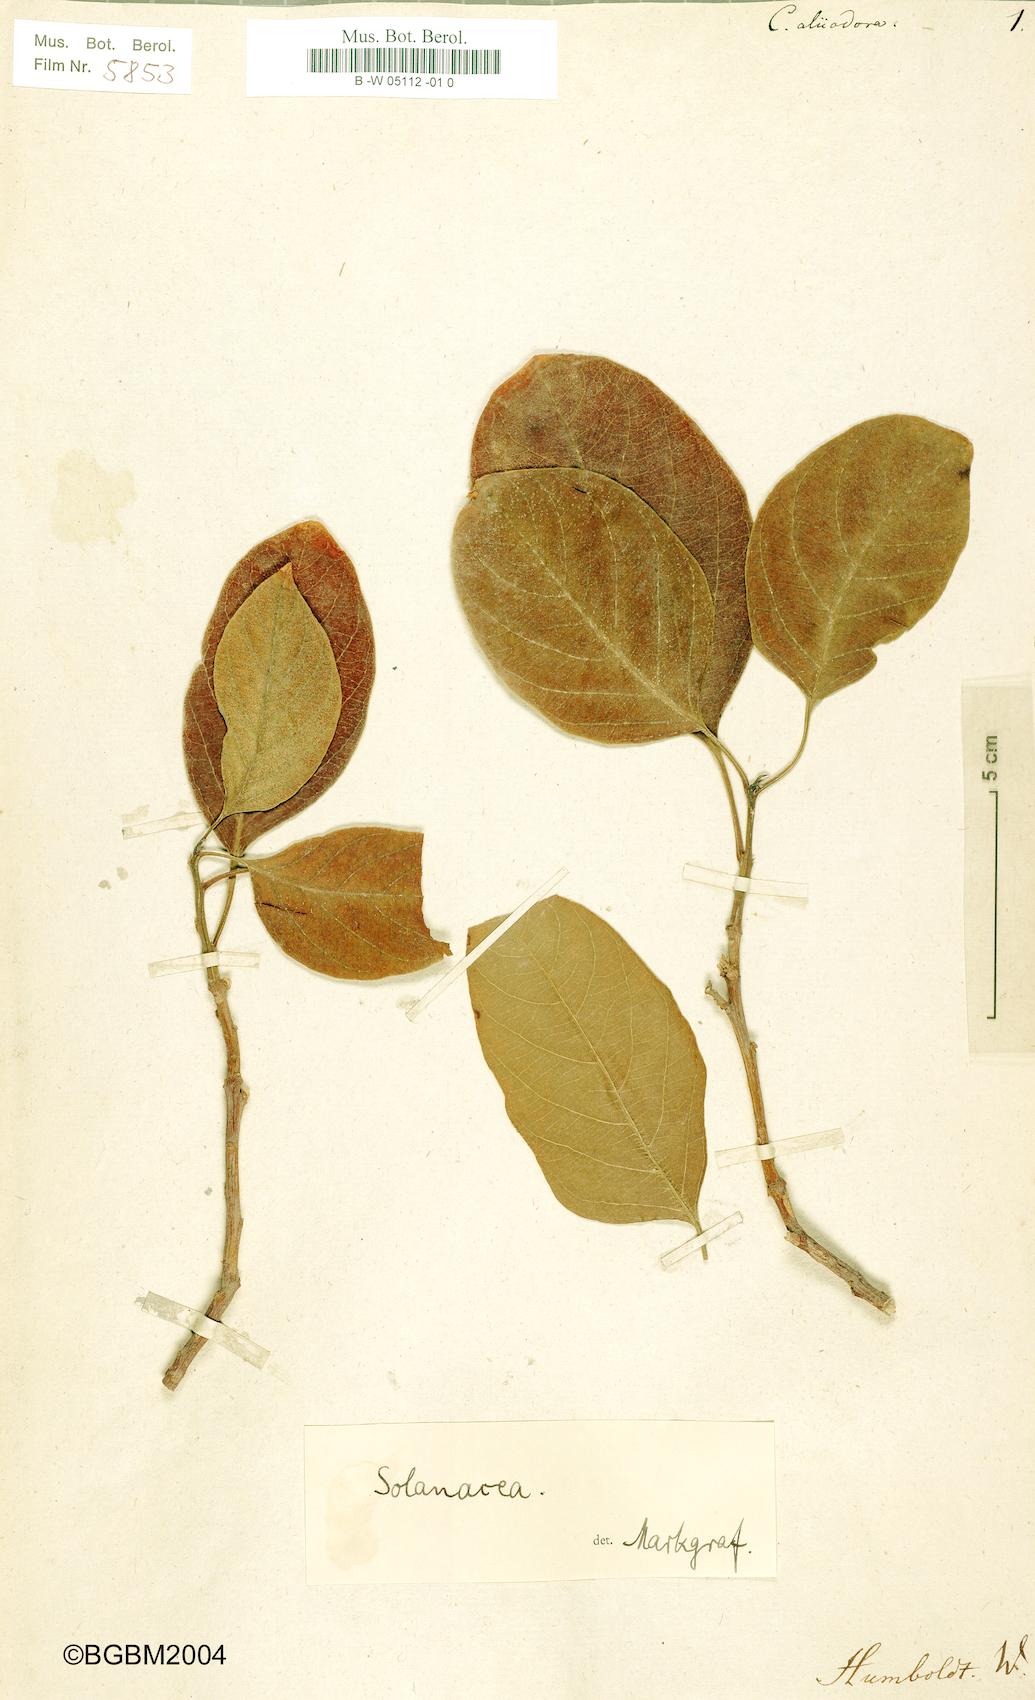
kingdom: Plantae
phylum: Tracheophyta
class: Magnoliopsida
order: Gentianales
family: Apocynaceae
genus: Cascabela
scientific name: Cascabela ovata
